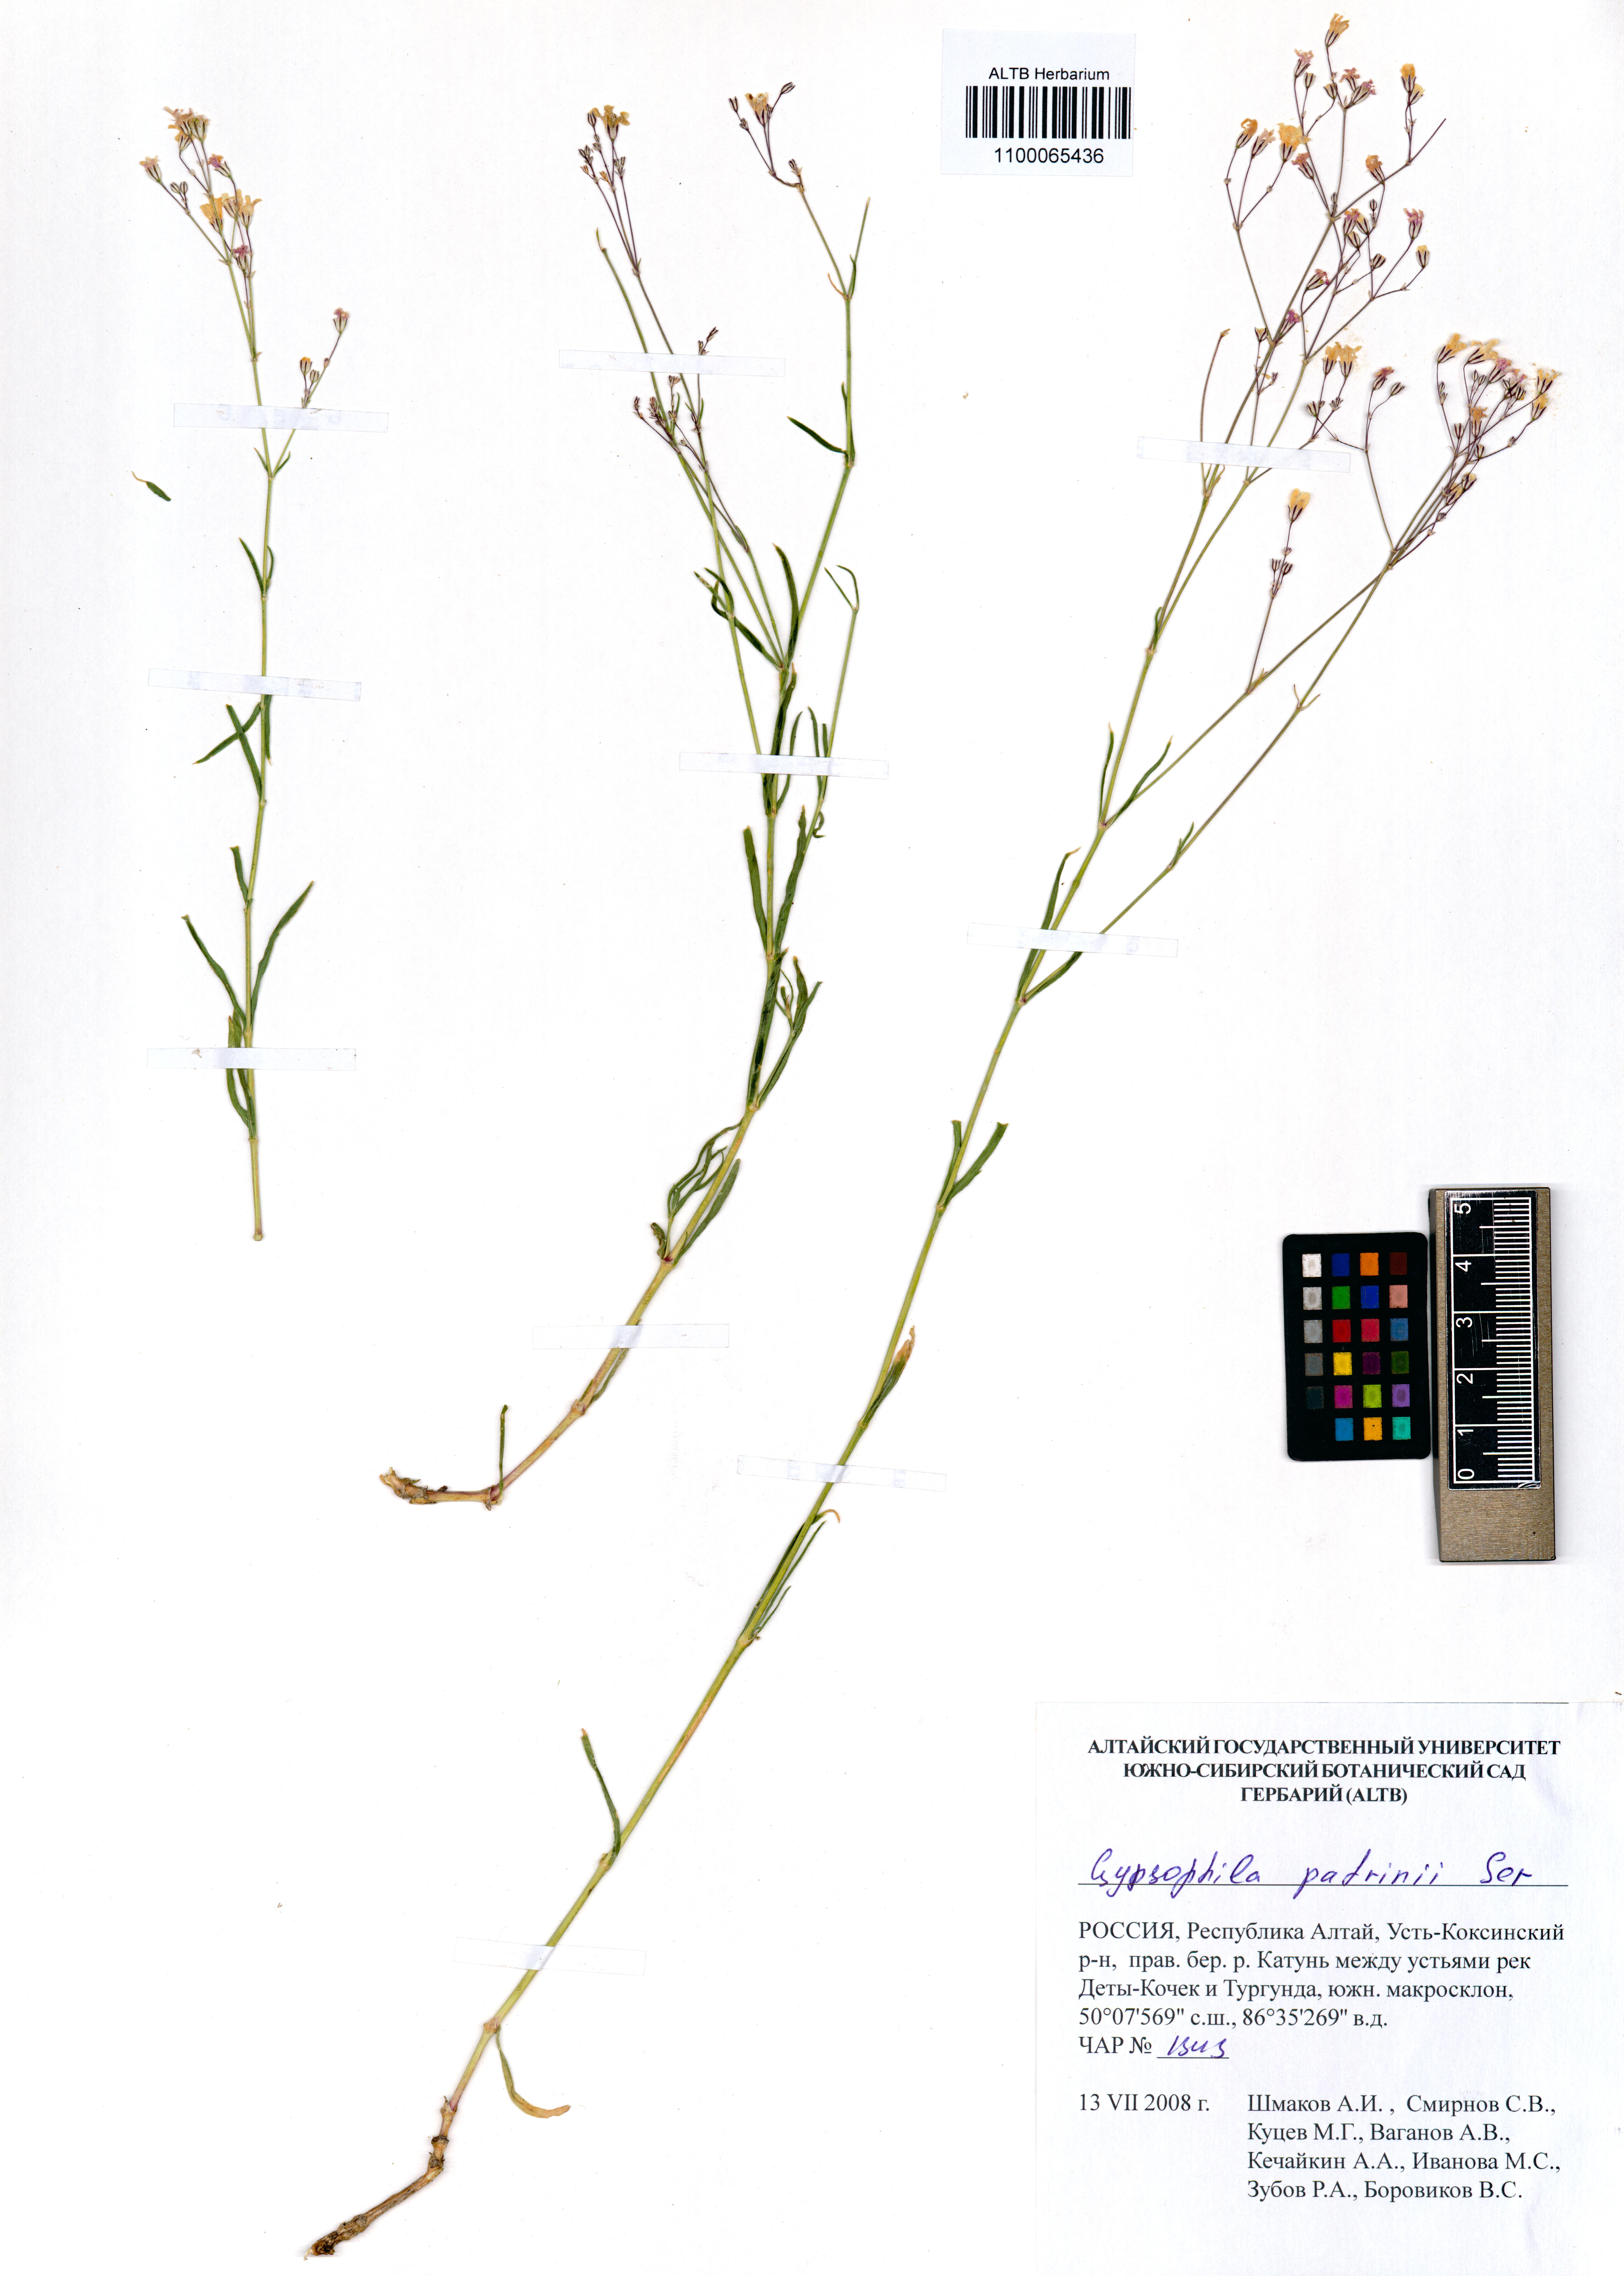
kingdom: Plantae
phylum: Tracheophyta
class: Magnoliopsida
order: Caryophyllales
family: Caryophyllaceae
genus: Gypsophila
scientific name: Gypsophila patrinii
